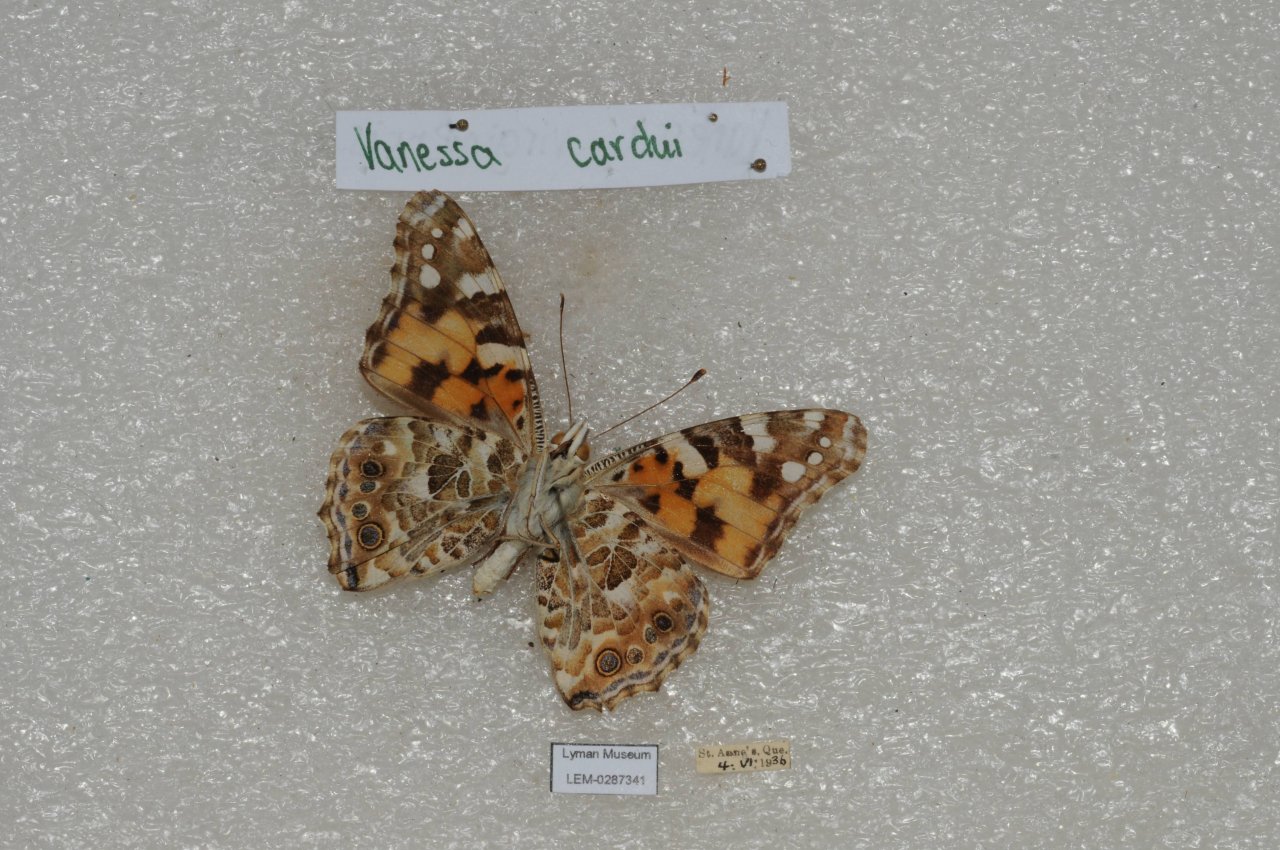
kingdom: Animalia
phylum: Arthropoda
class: Insecta
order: Lepidoptera
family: Nymphalidae
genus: Vanessa
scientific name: Vanessa cardui
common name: Painted Lady
